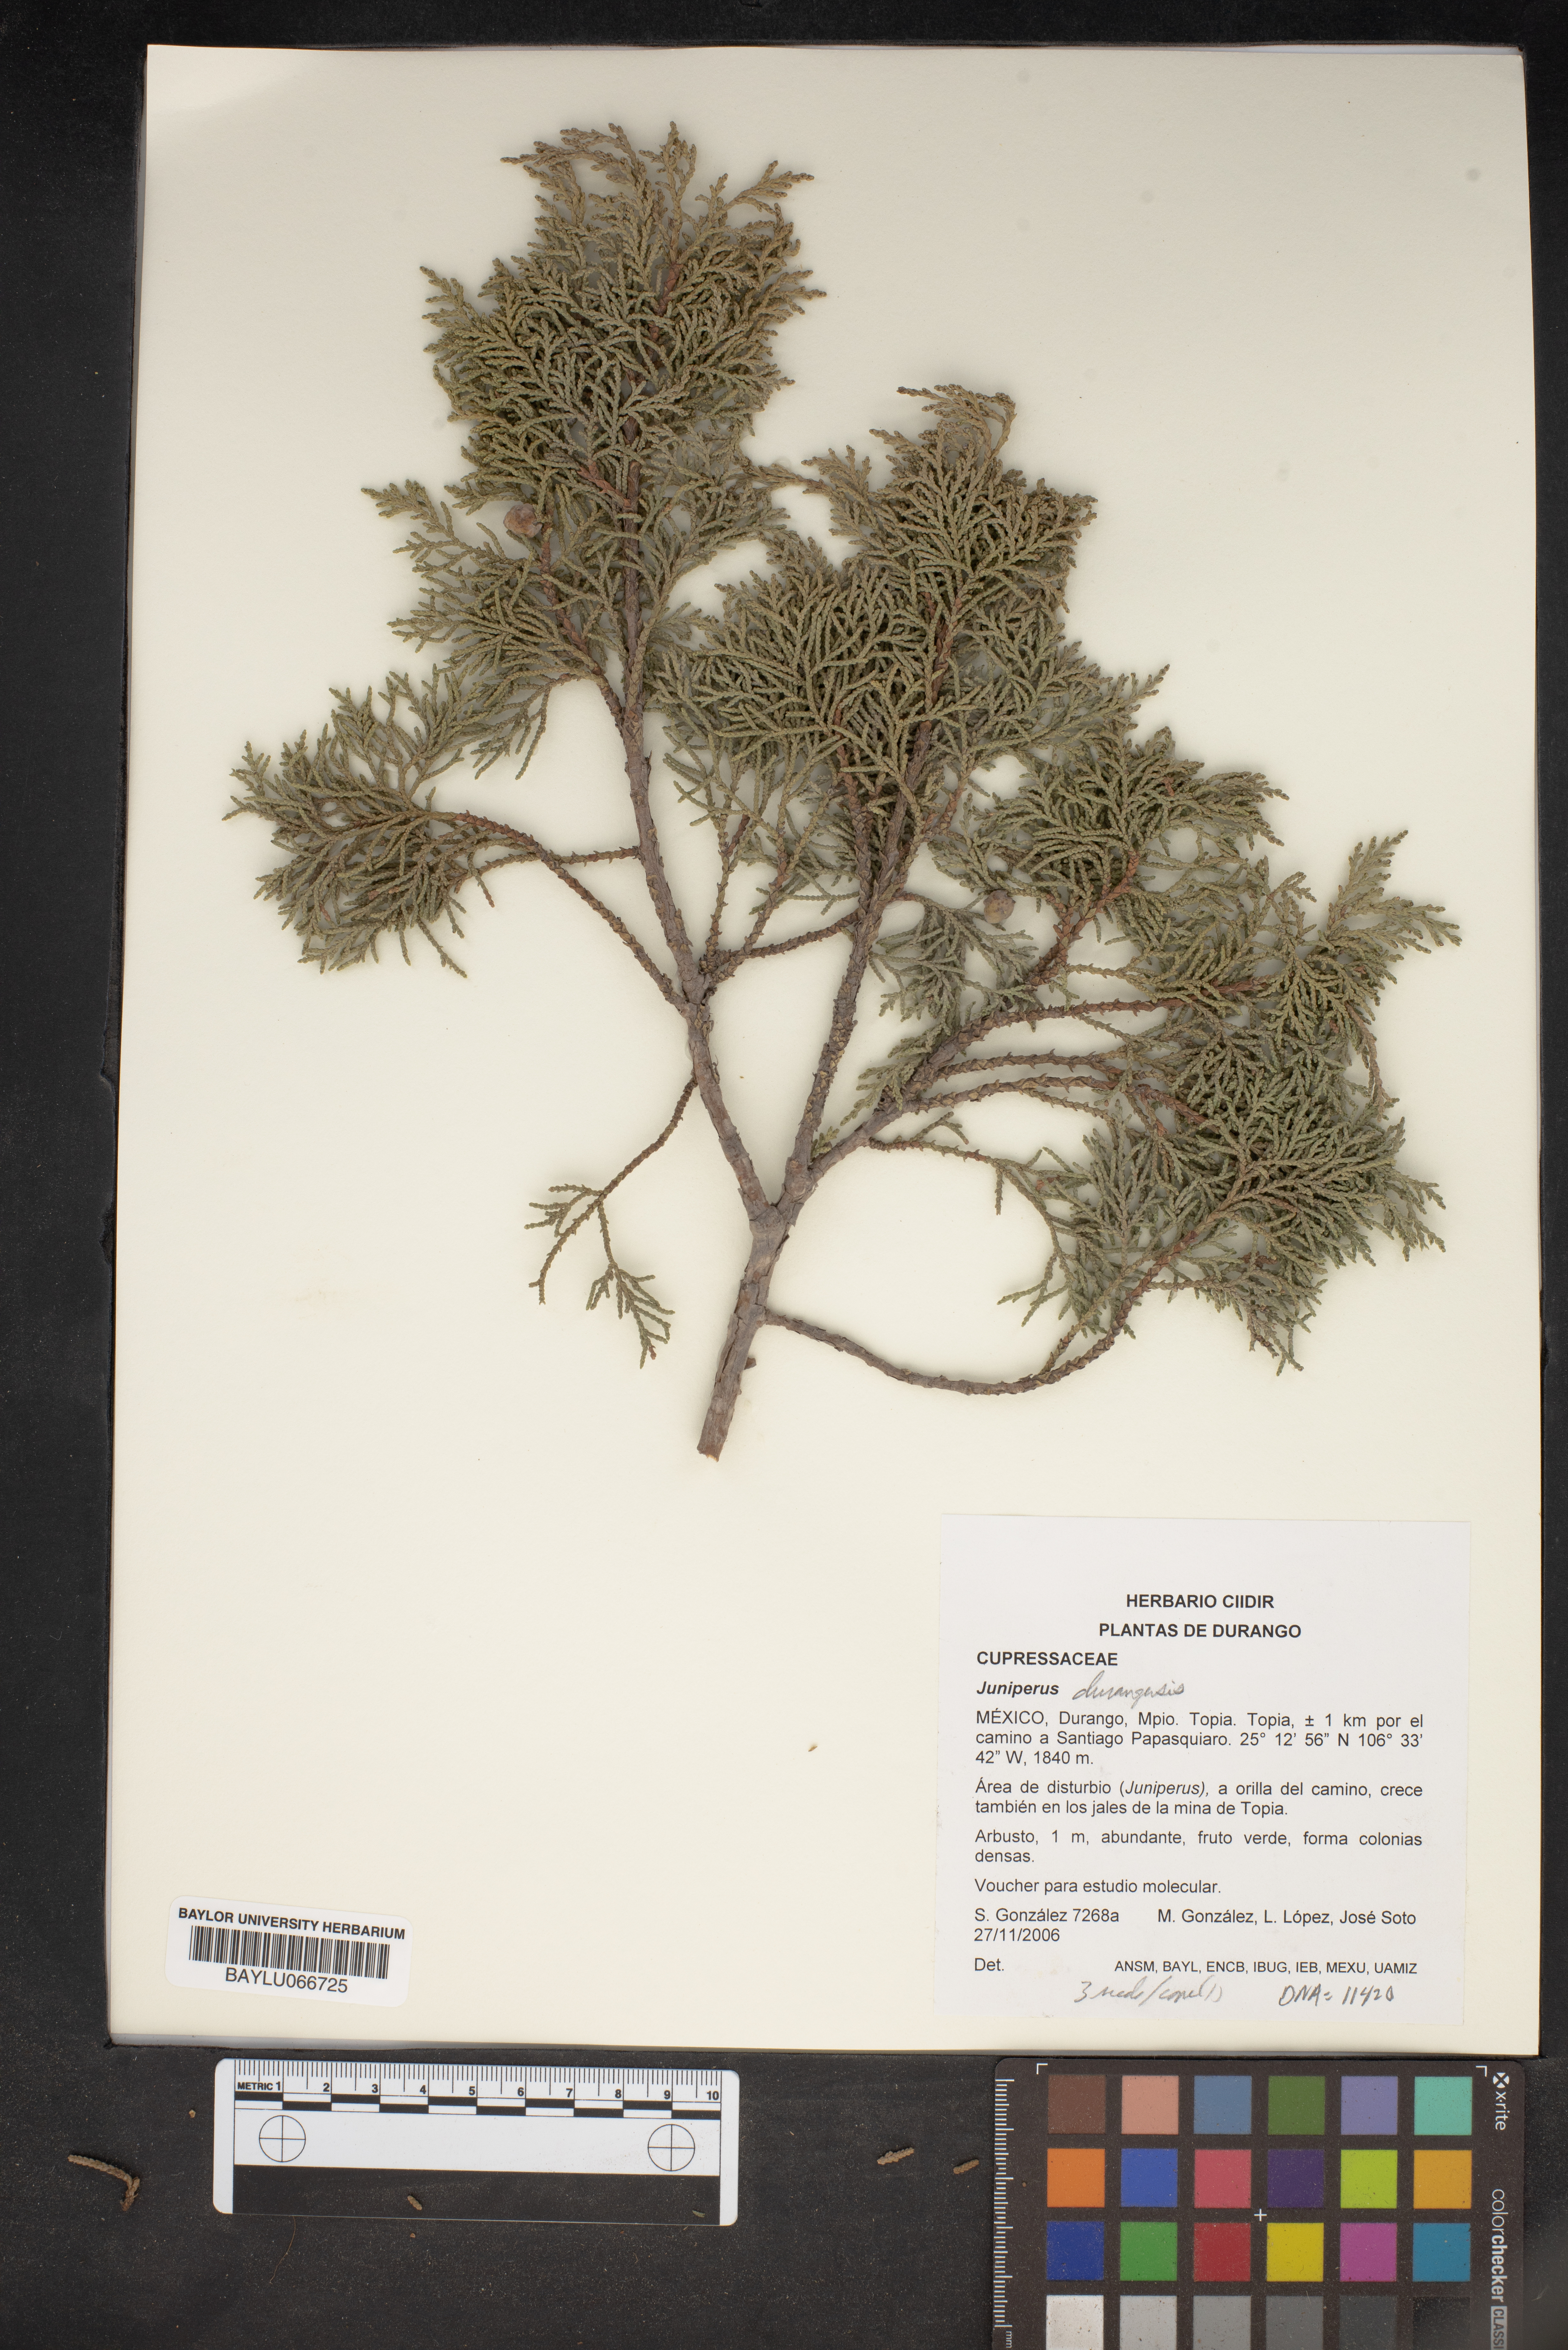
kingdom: Plantae
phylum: Tracheophyta
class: Pinopsida
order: Pinales
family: Cupressaceae
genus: Juniperus
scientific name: Juniperus durangensis
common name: Durango juniper
